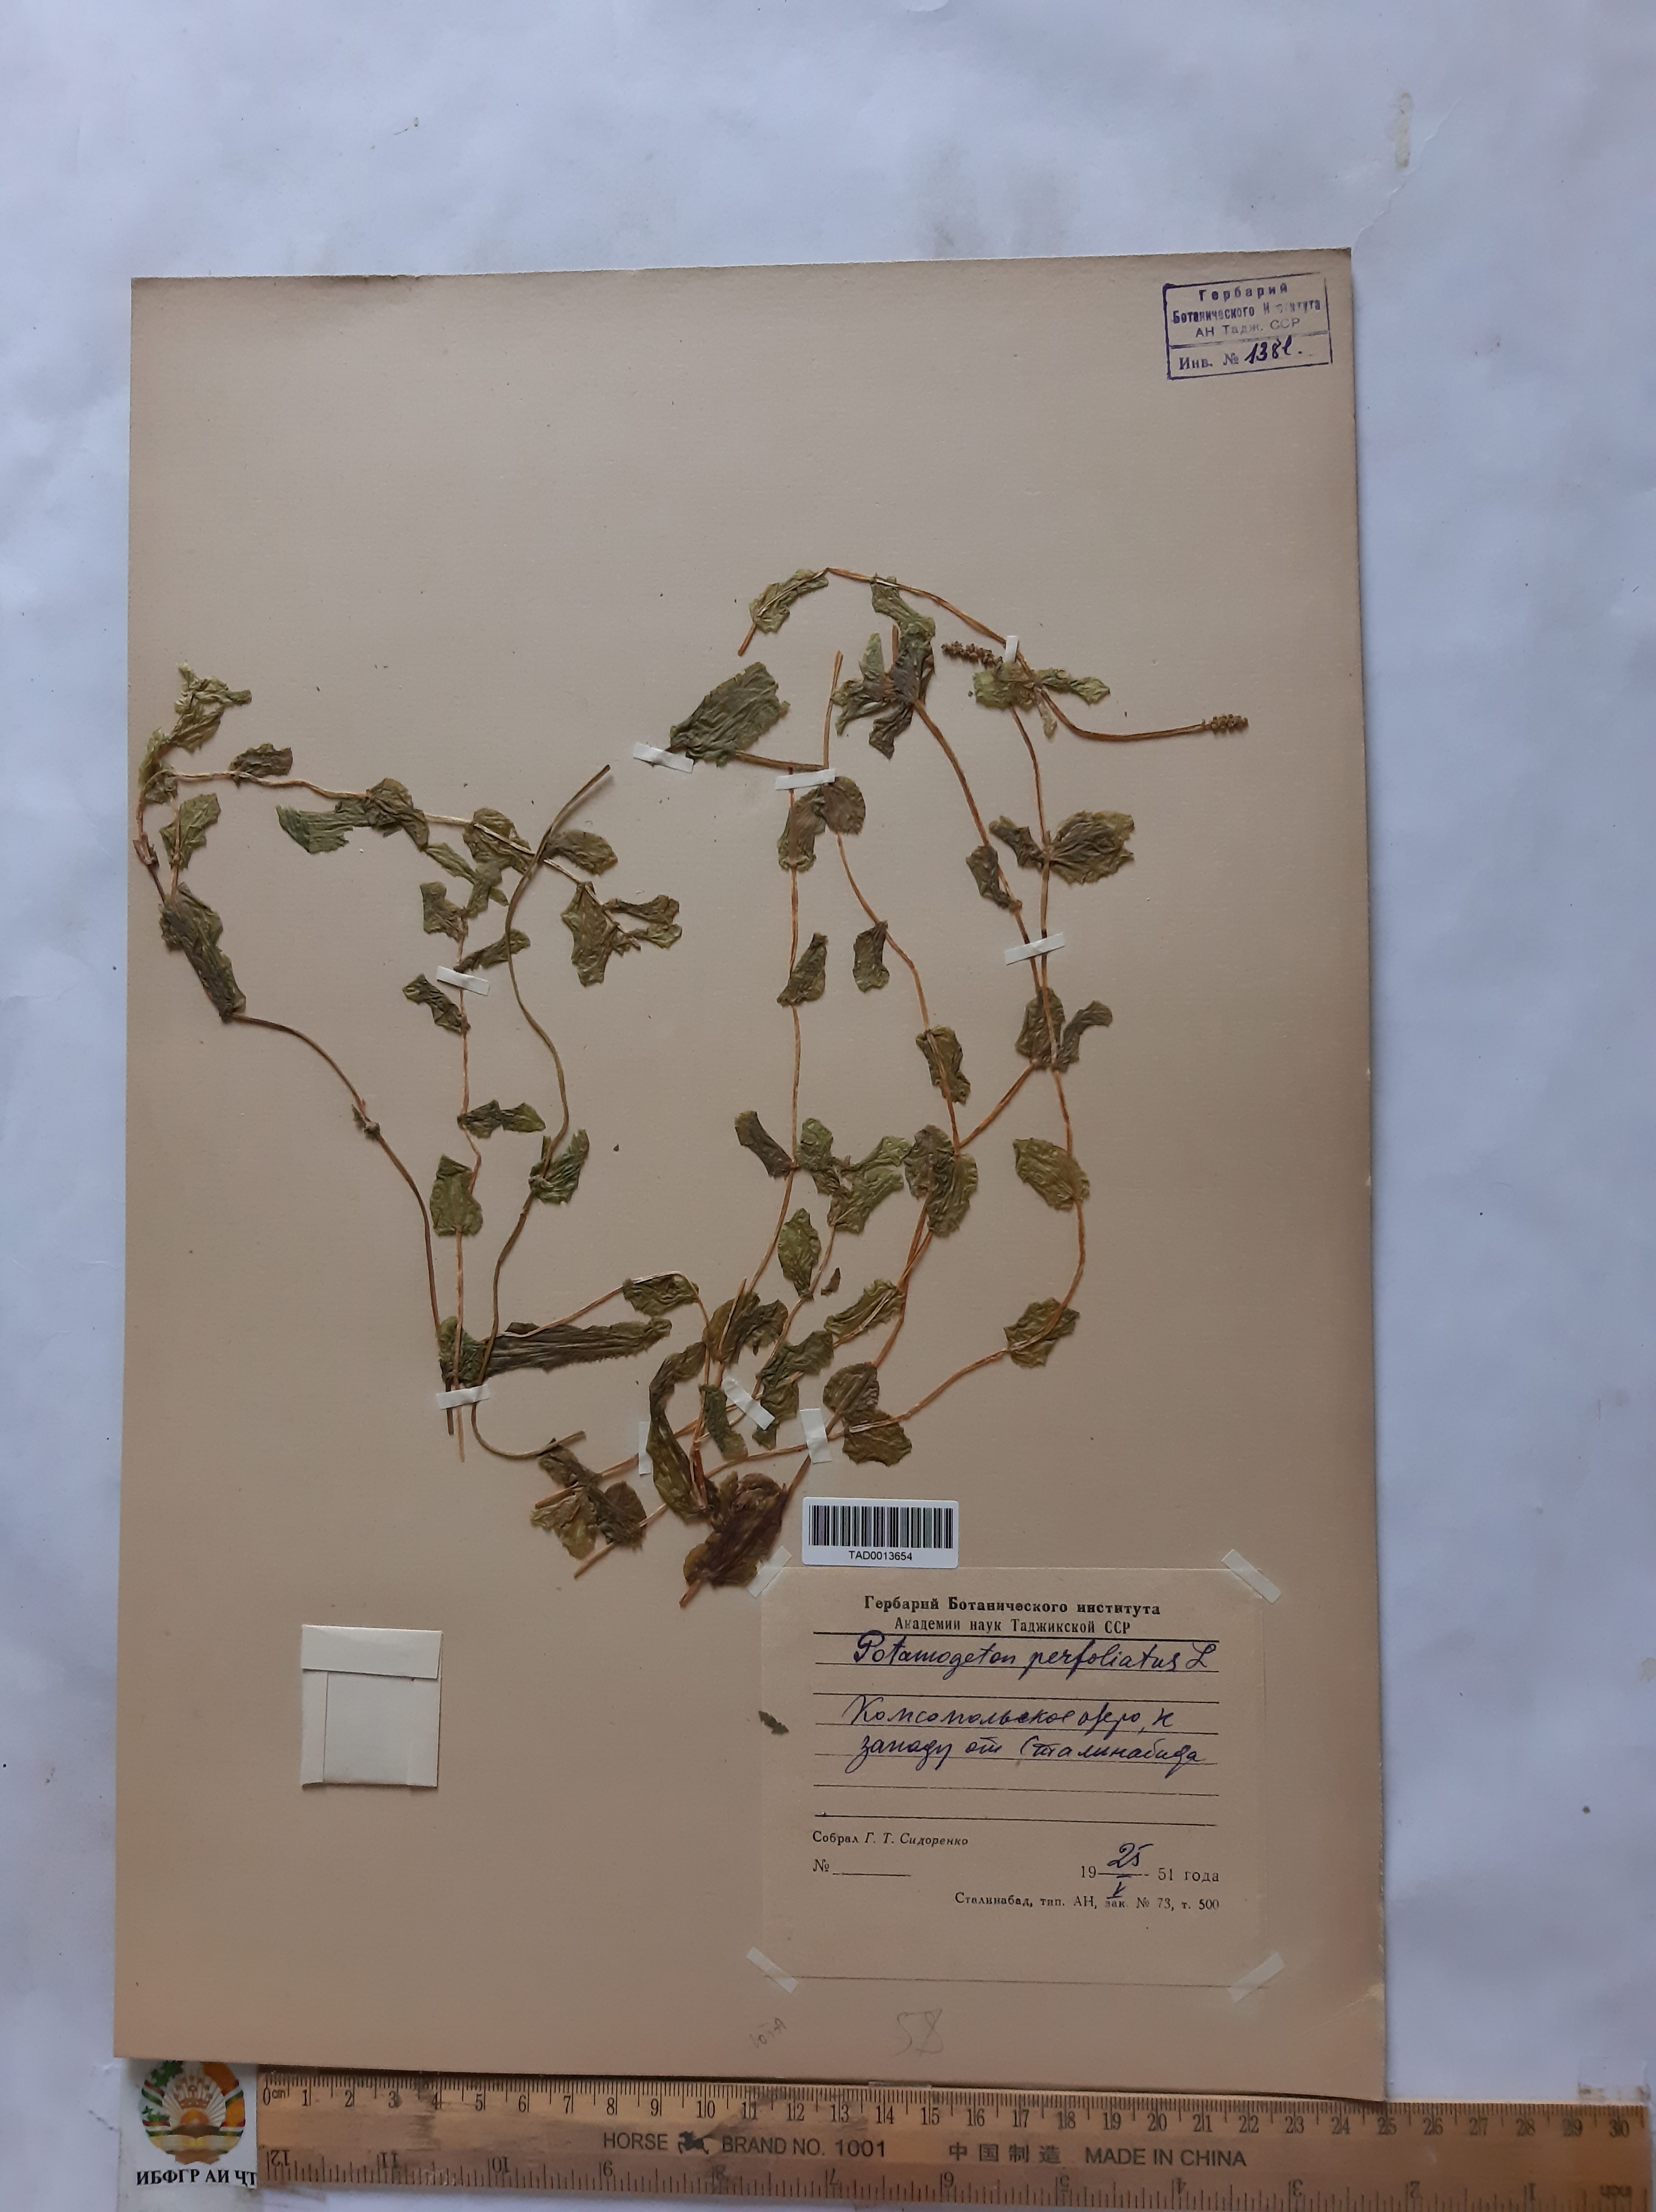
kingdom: Plantae
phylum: Tracheophyta
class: Liliopsida
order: Alismatales
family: Potamogetonaceae
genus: Potamogeton
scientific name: Potamogeton perfoliatus
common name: Perfoliate pondweed
